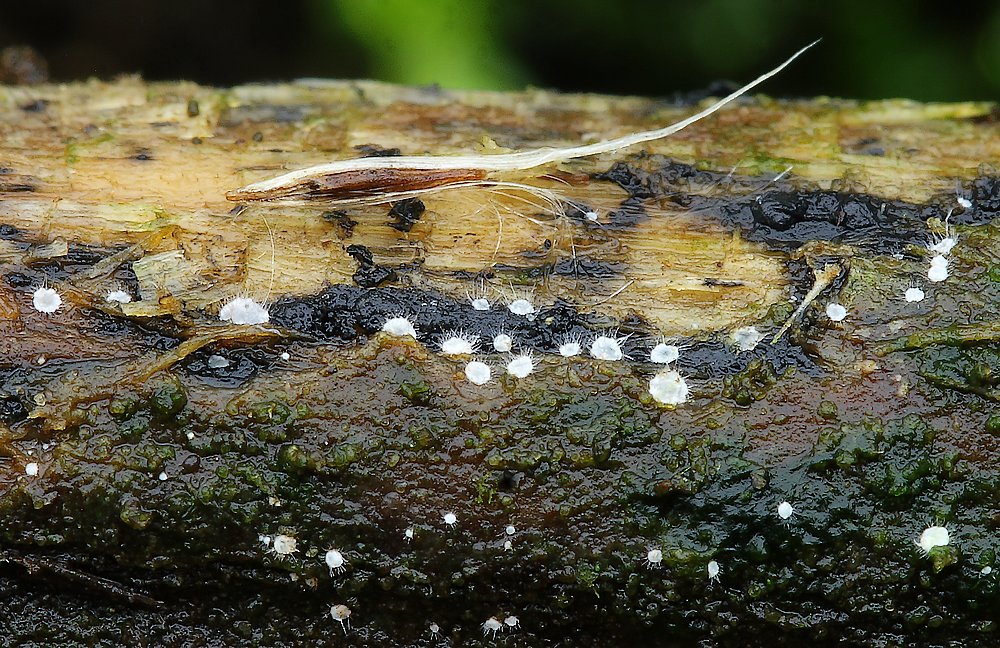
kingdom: Fungi
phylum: Ascomycota
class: Sordariomycetes
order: Hypocreales
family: Nectriaceae
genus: Scolecofusarium
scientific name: Scolecofusarium ciliatum
